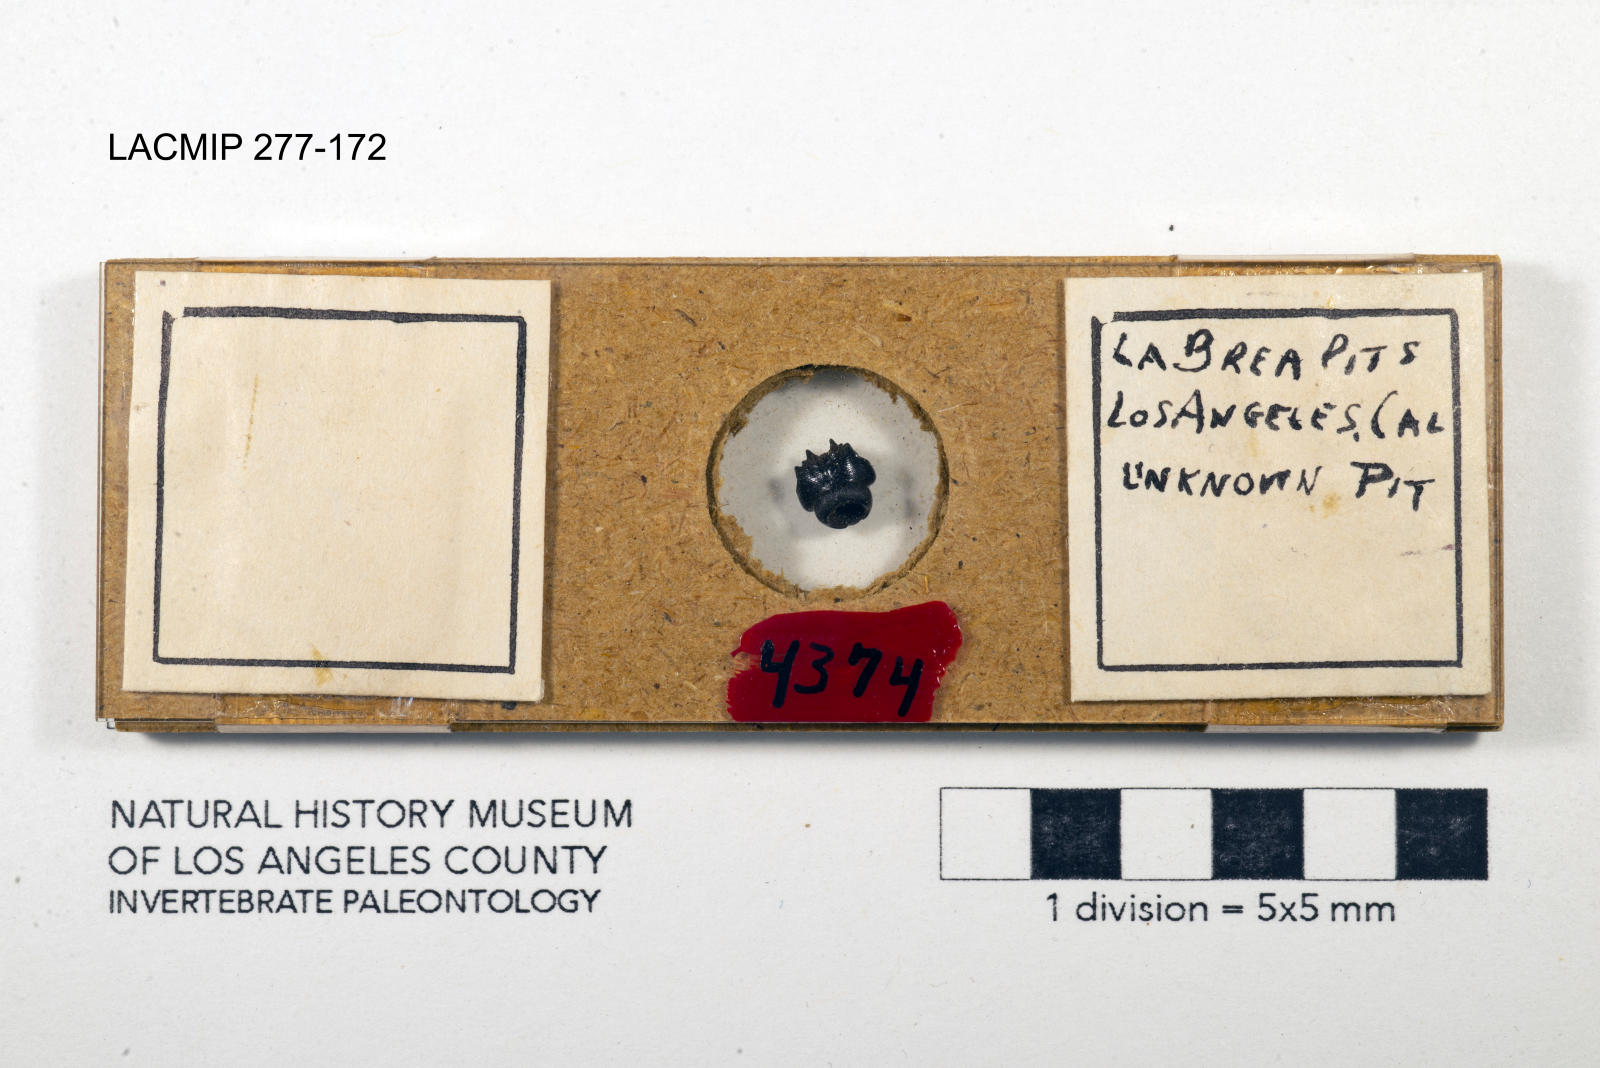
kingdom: Animalia
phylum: Arthropoda
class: Insecta
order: Coleoptera
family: Staphylinidae
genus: Nicrophorus
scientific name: Nicrophorus marginatus
